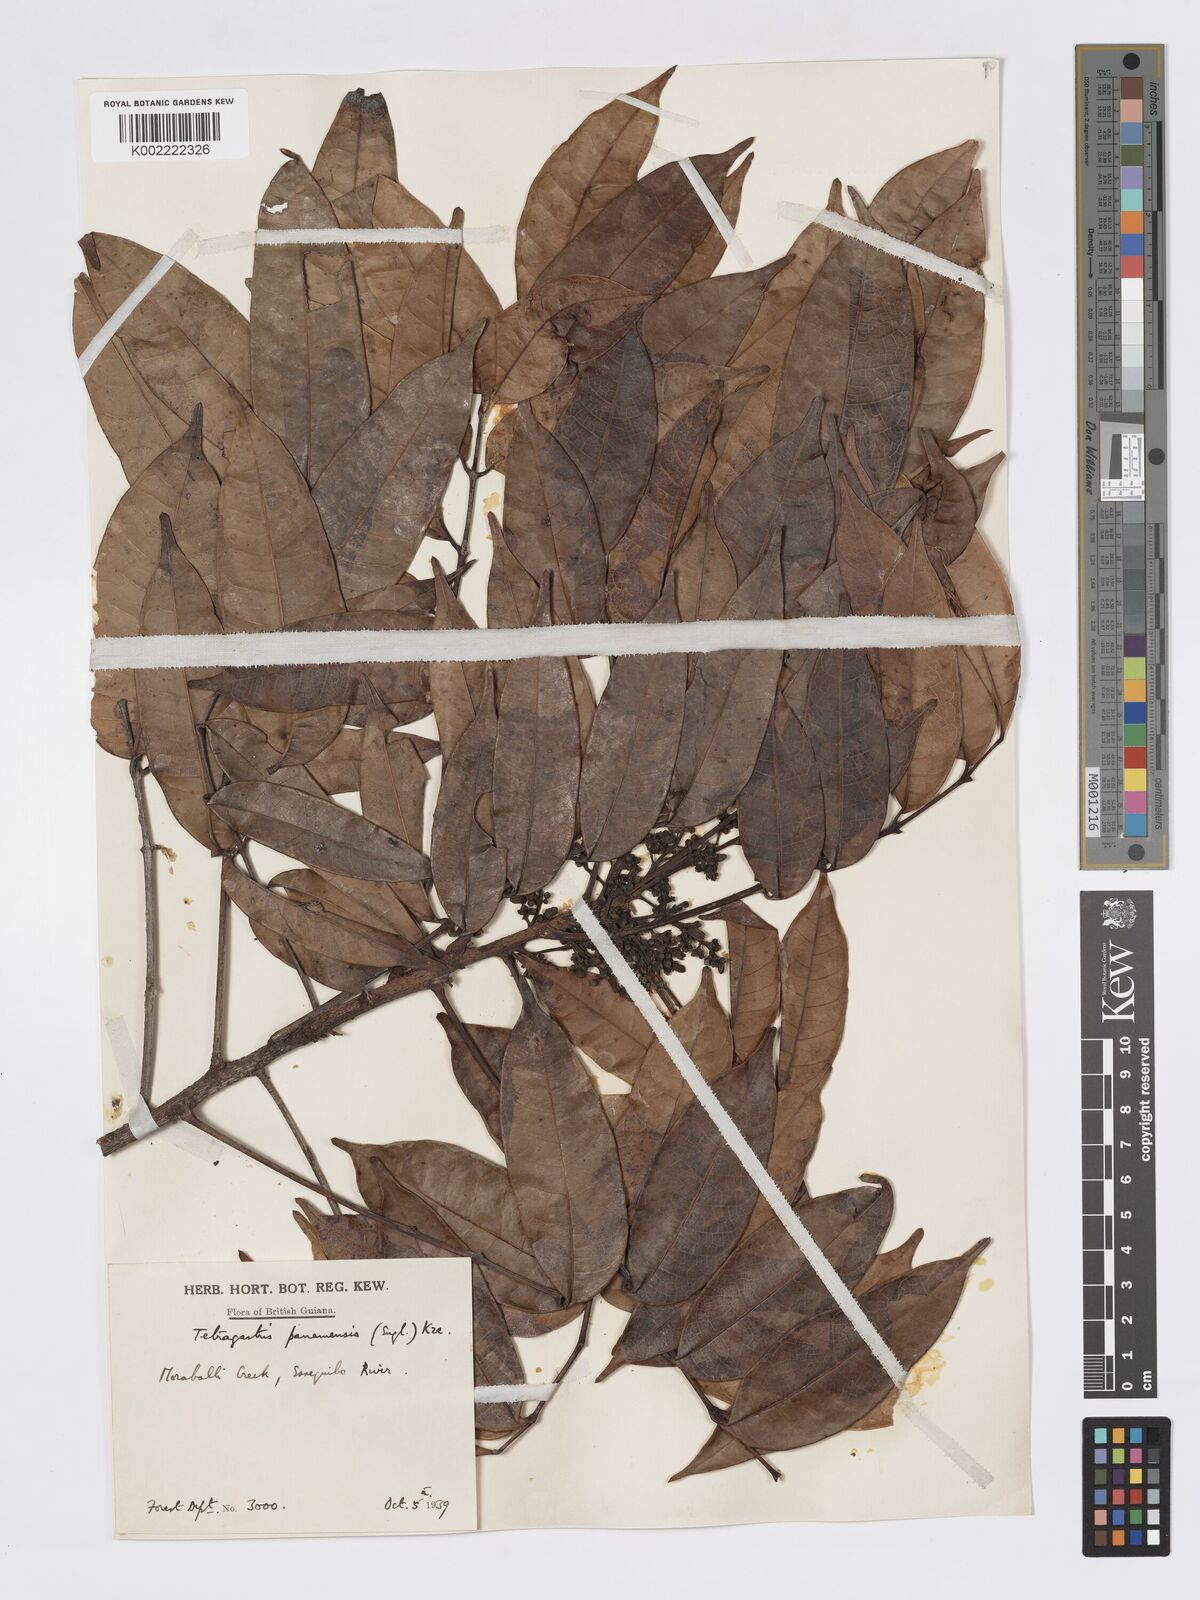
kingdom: Plantae
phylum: Tracheophyta
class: Magnoliopsida
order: Sapindales
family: Burseraceae
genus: Tetragastris
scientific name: Tetragastris panamensis
